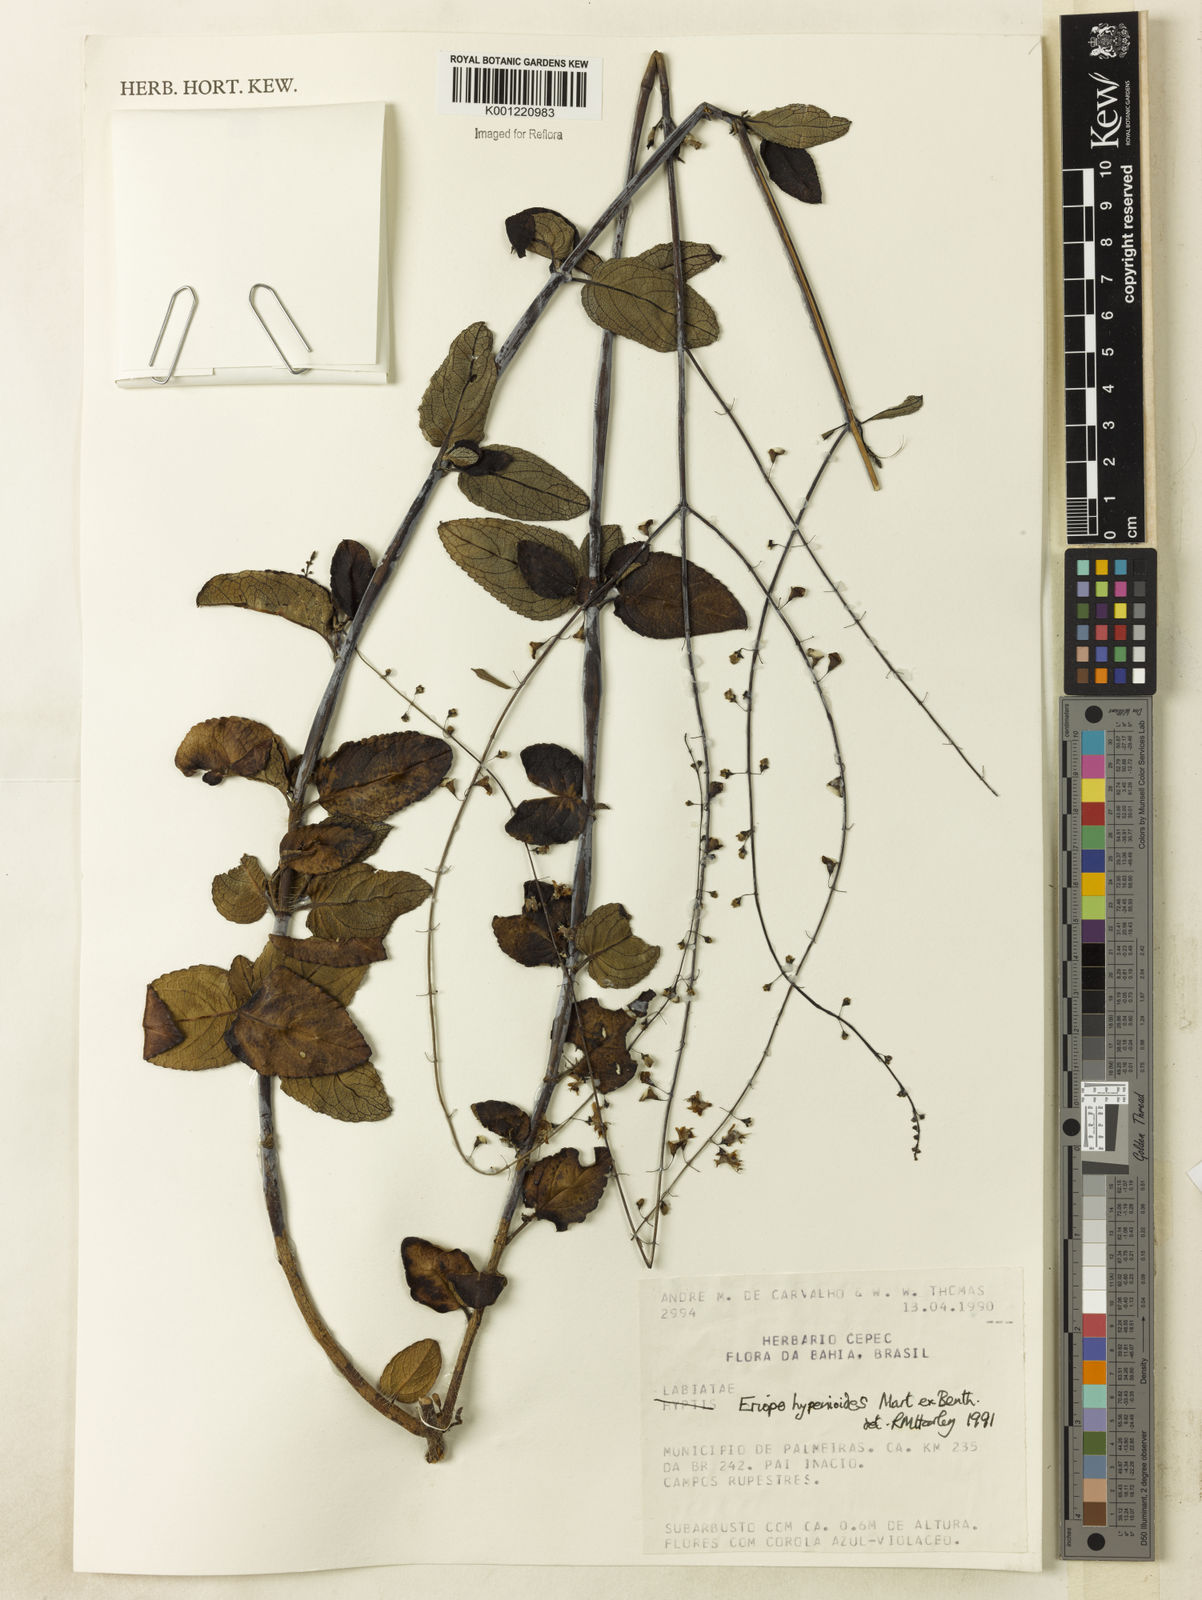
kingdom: Plantae
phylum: Tracheophyta
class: Magnoliopsida
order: Lamiales
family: Lamiaceae
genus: Eriope
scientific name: Eriope hypenioides
